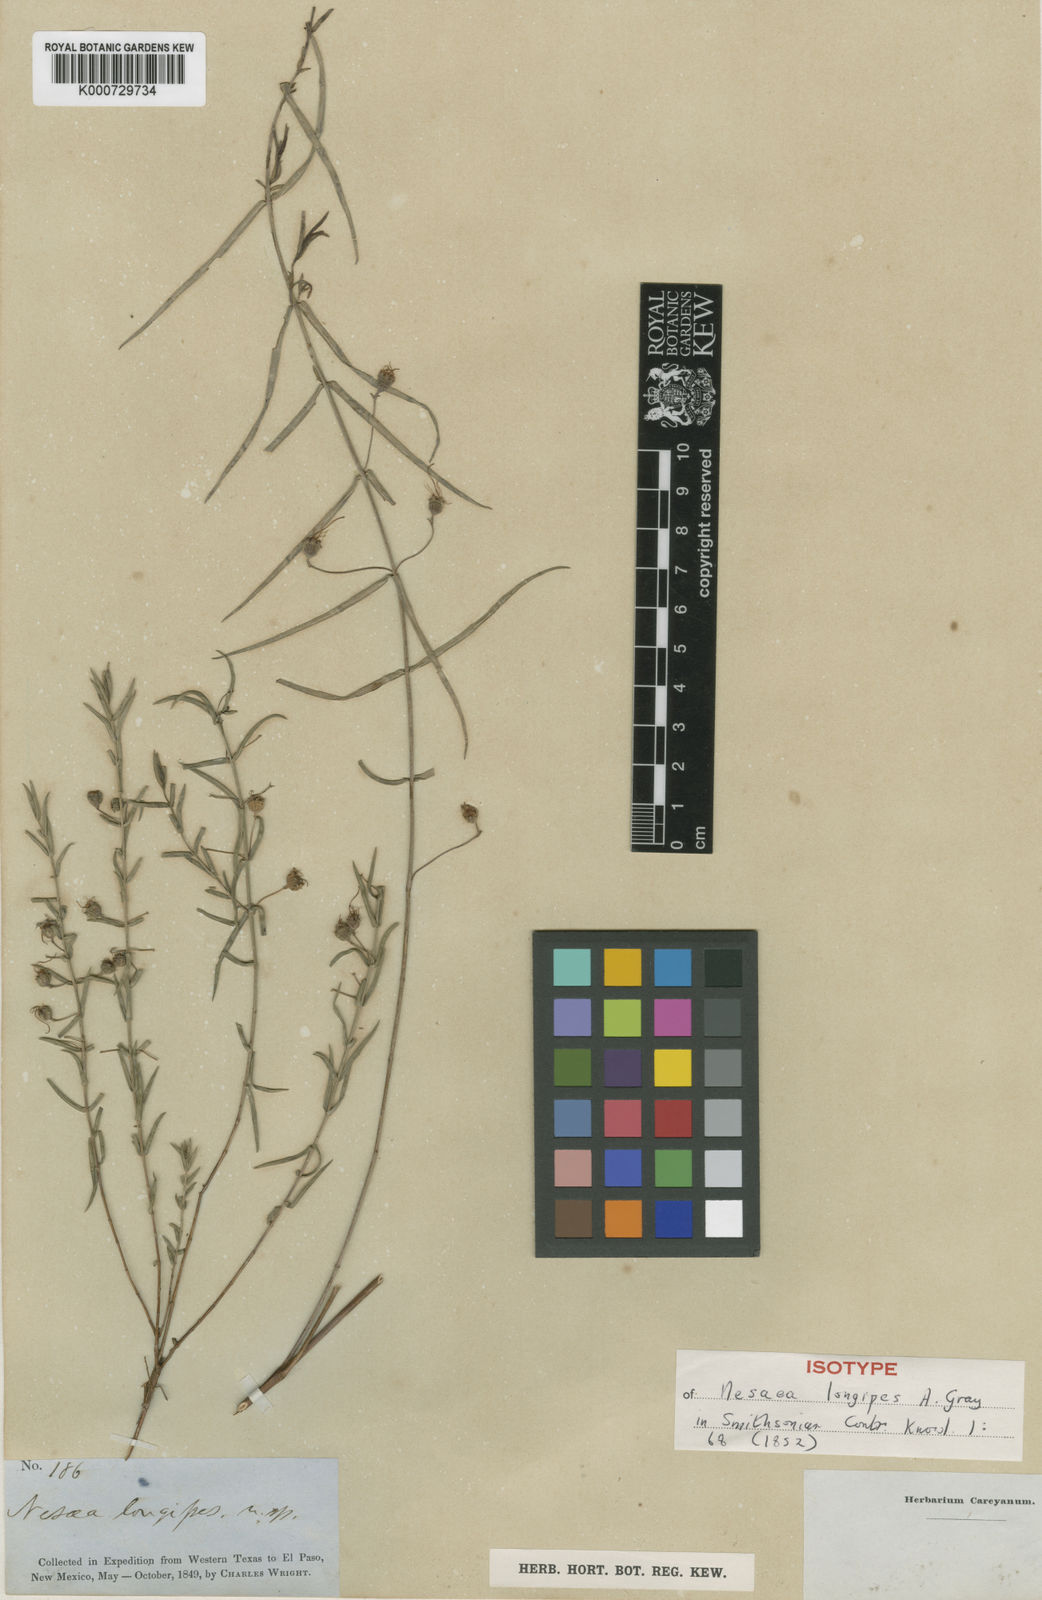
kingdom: Plantae
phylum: Tracheophyta
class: Magnoliopsida
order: Myrtales
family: Lythraceae
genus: Ammannia
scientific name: Ammannia grayi
